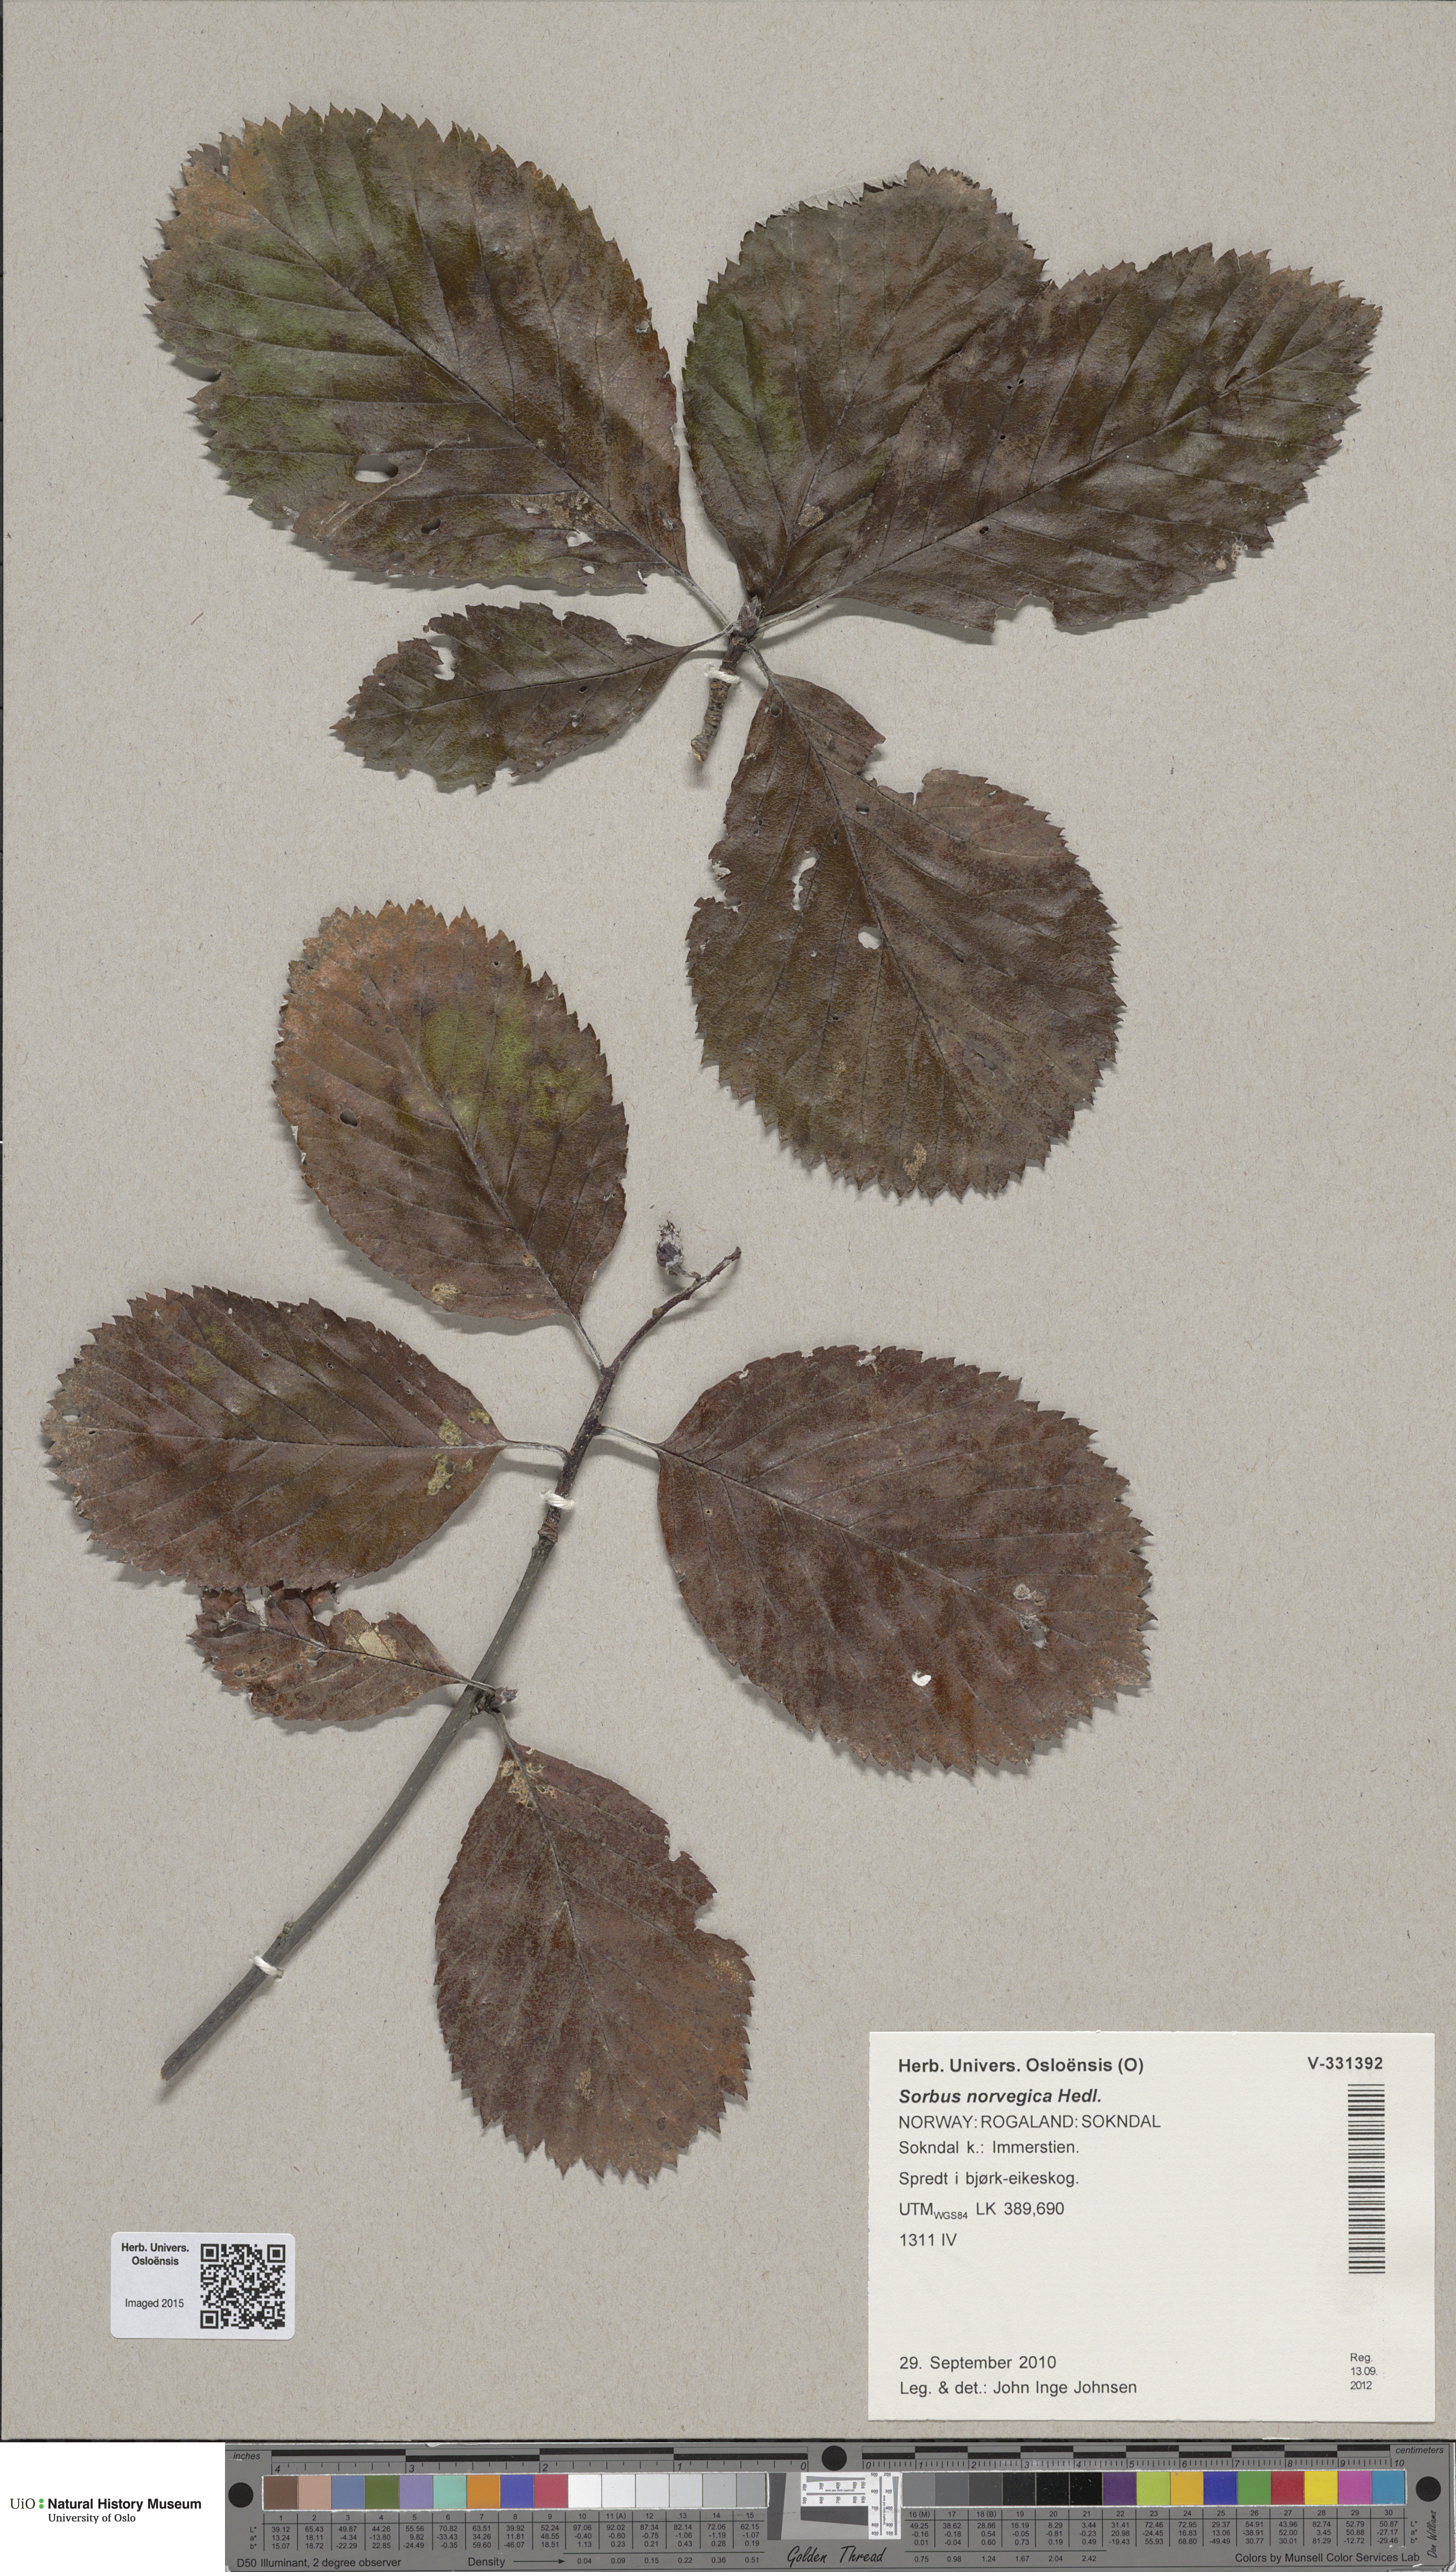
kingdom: Plantae
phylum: Tracheophyta
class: Magnoliopsida
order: Rosales
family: Rosaceae
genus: Aria
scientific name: Aria obtusifolia
